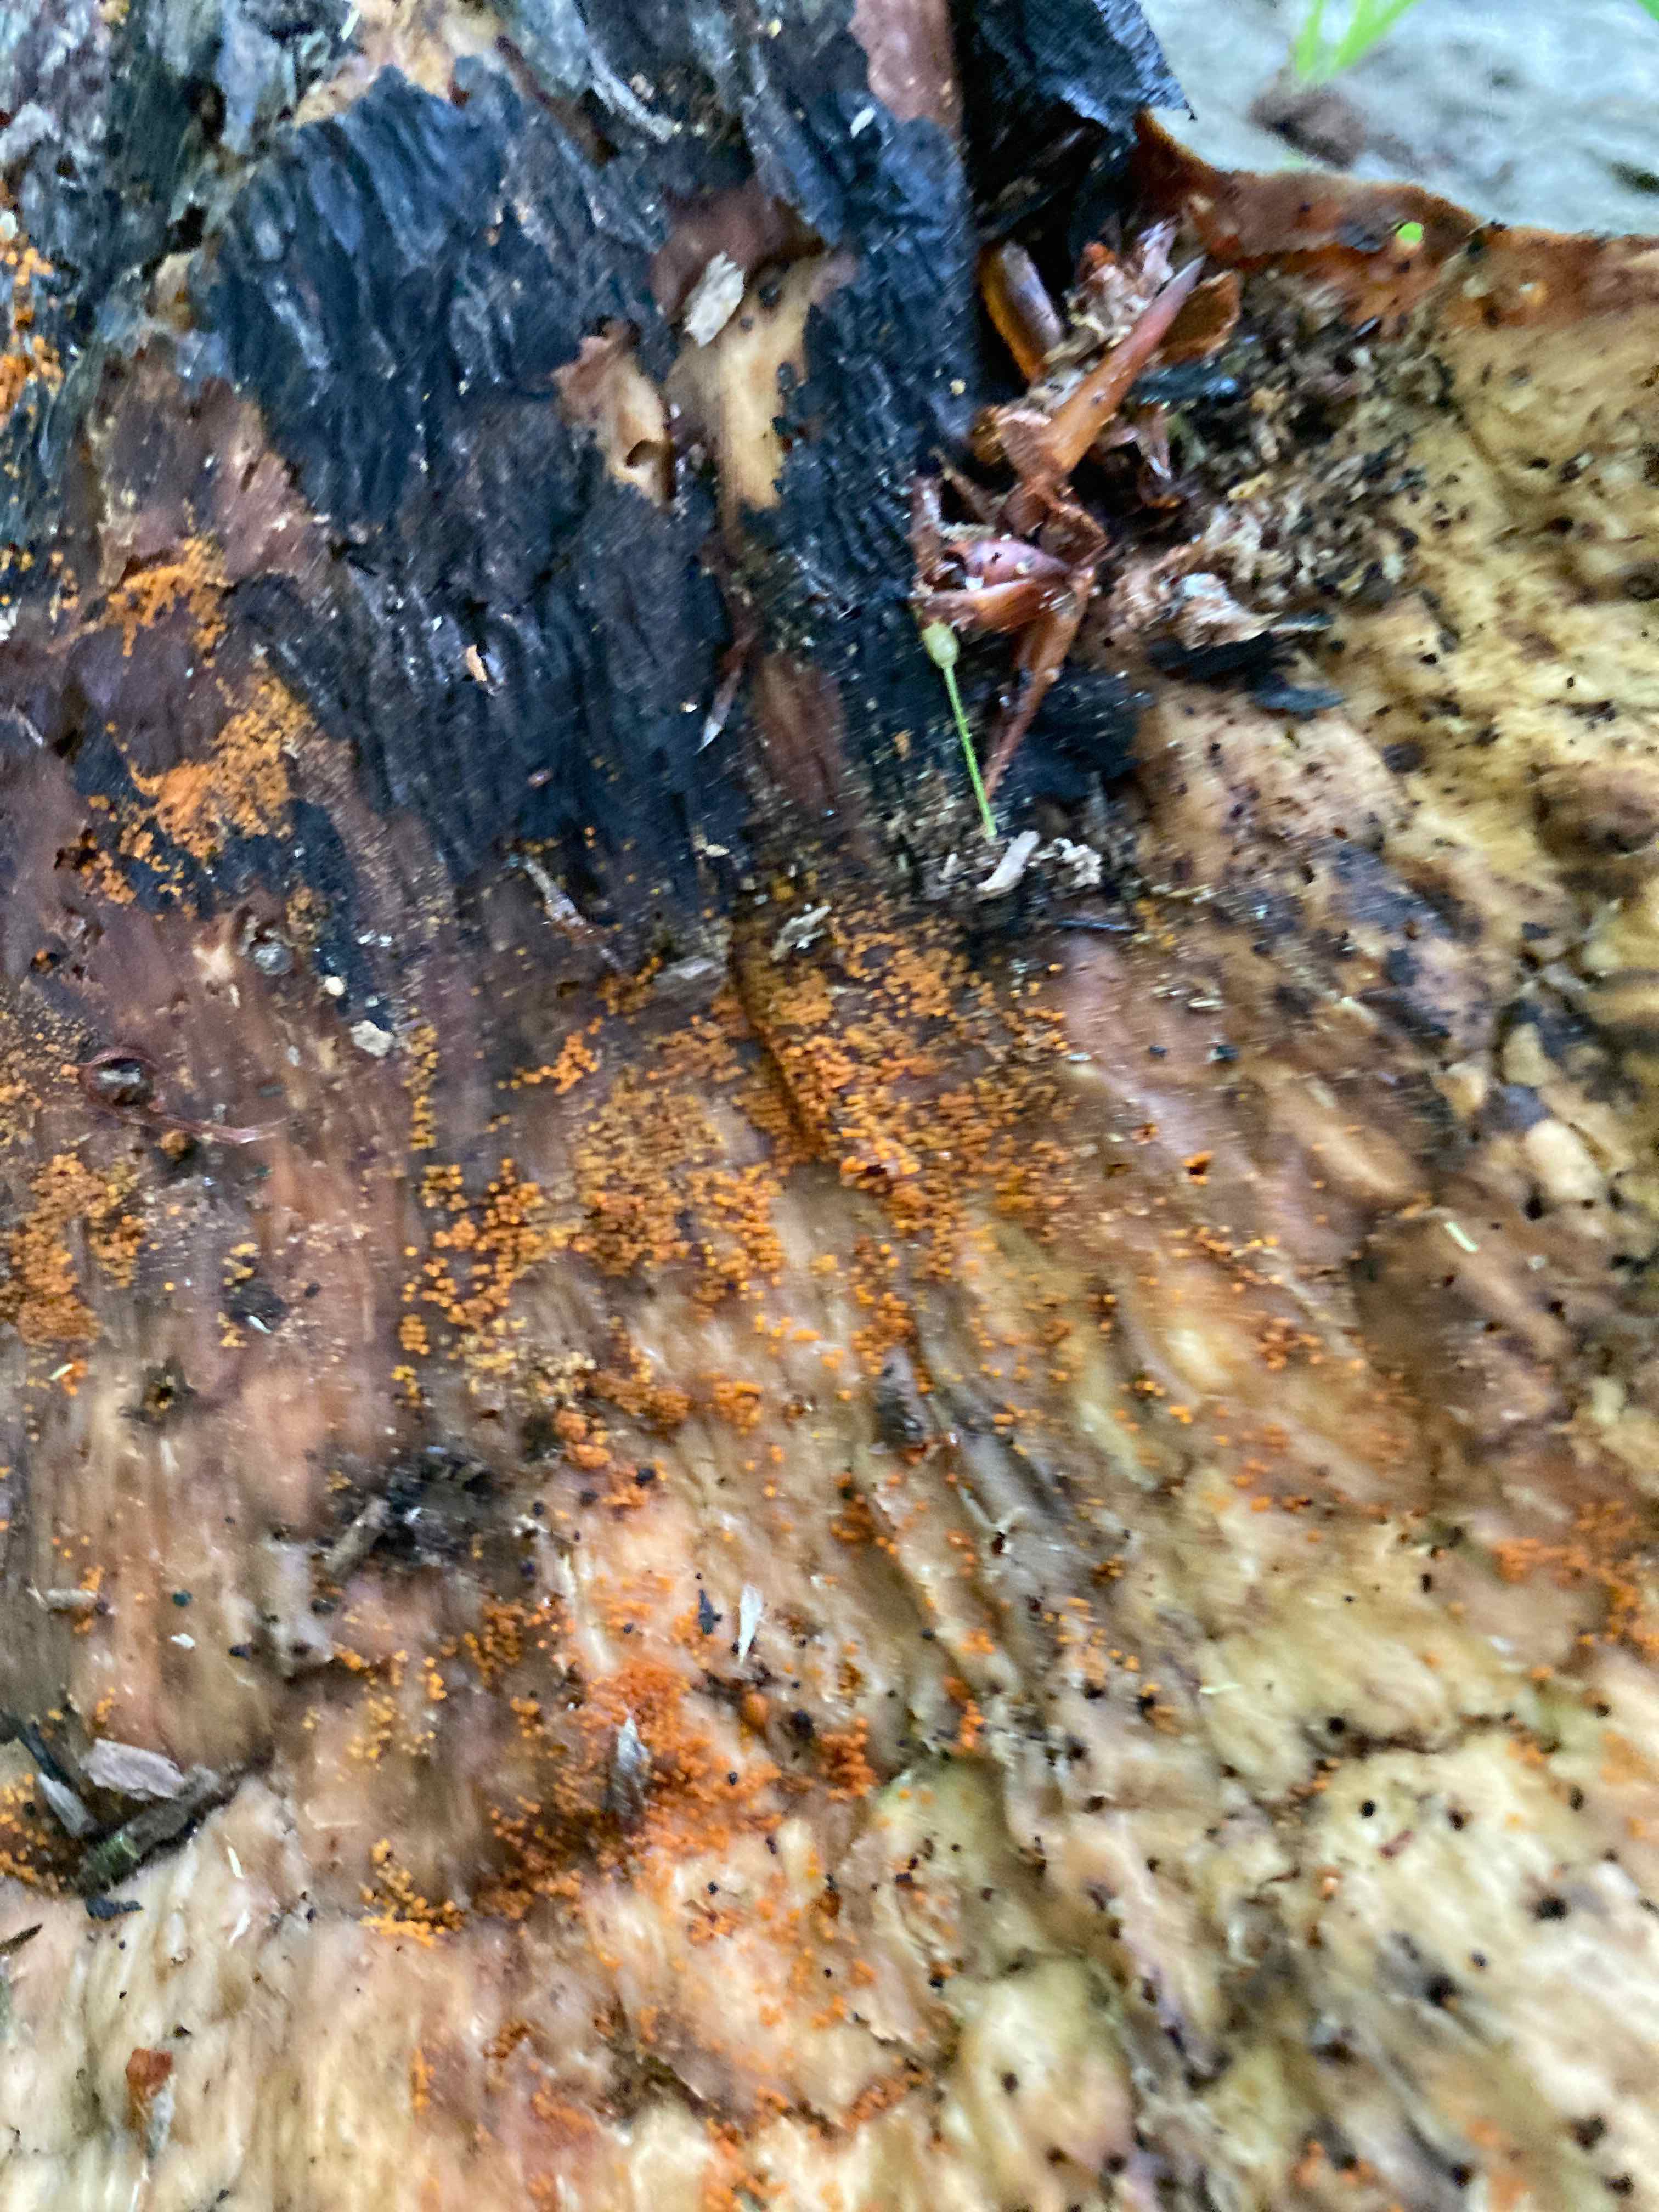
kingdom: Fungi
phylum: Ascomycota
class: Sordariomycetes
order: Hypocreales
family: Nectriaceae
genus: Hydropisphaera
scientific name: Hydropisphaera peziza
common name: skålformet gyldenkerne
